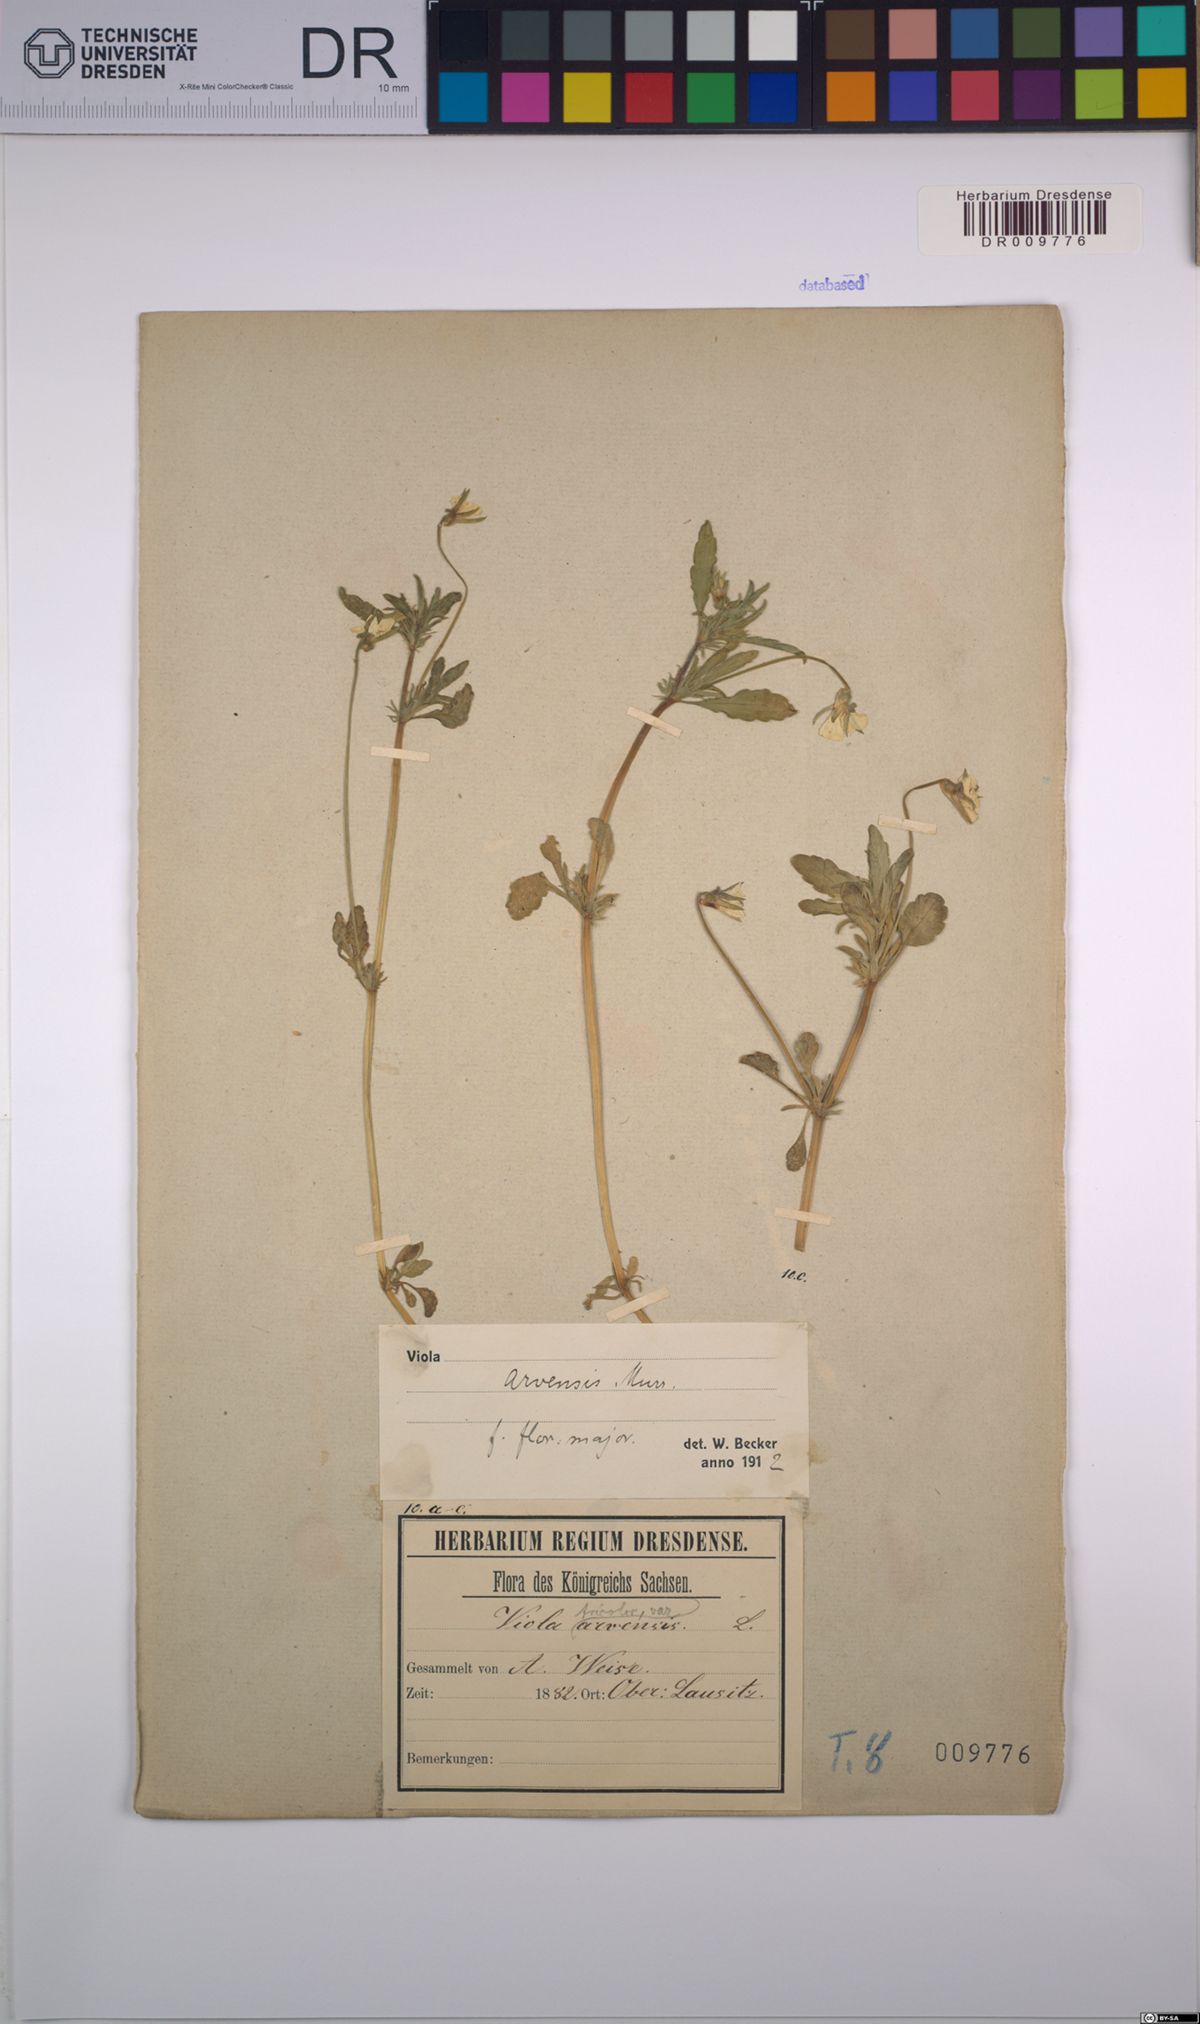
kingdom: Plantae
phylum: Tracheophyta
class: Magnoliopsida
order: Malpighiales
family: Violaceae
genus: Viola
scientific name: Viola arvensis
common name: Field pansy
